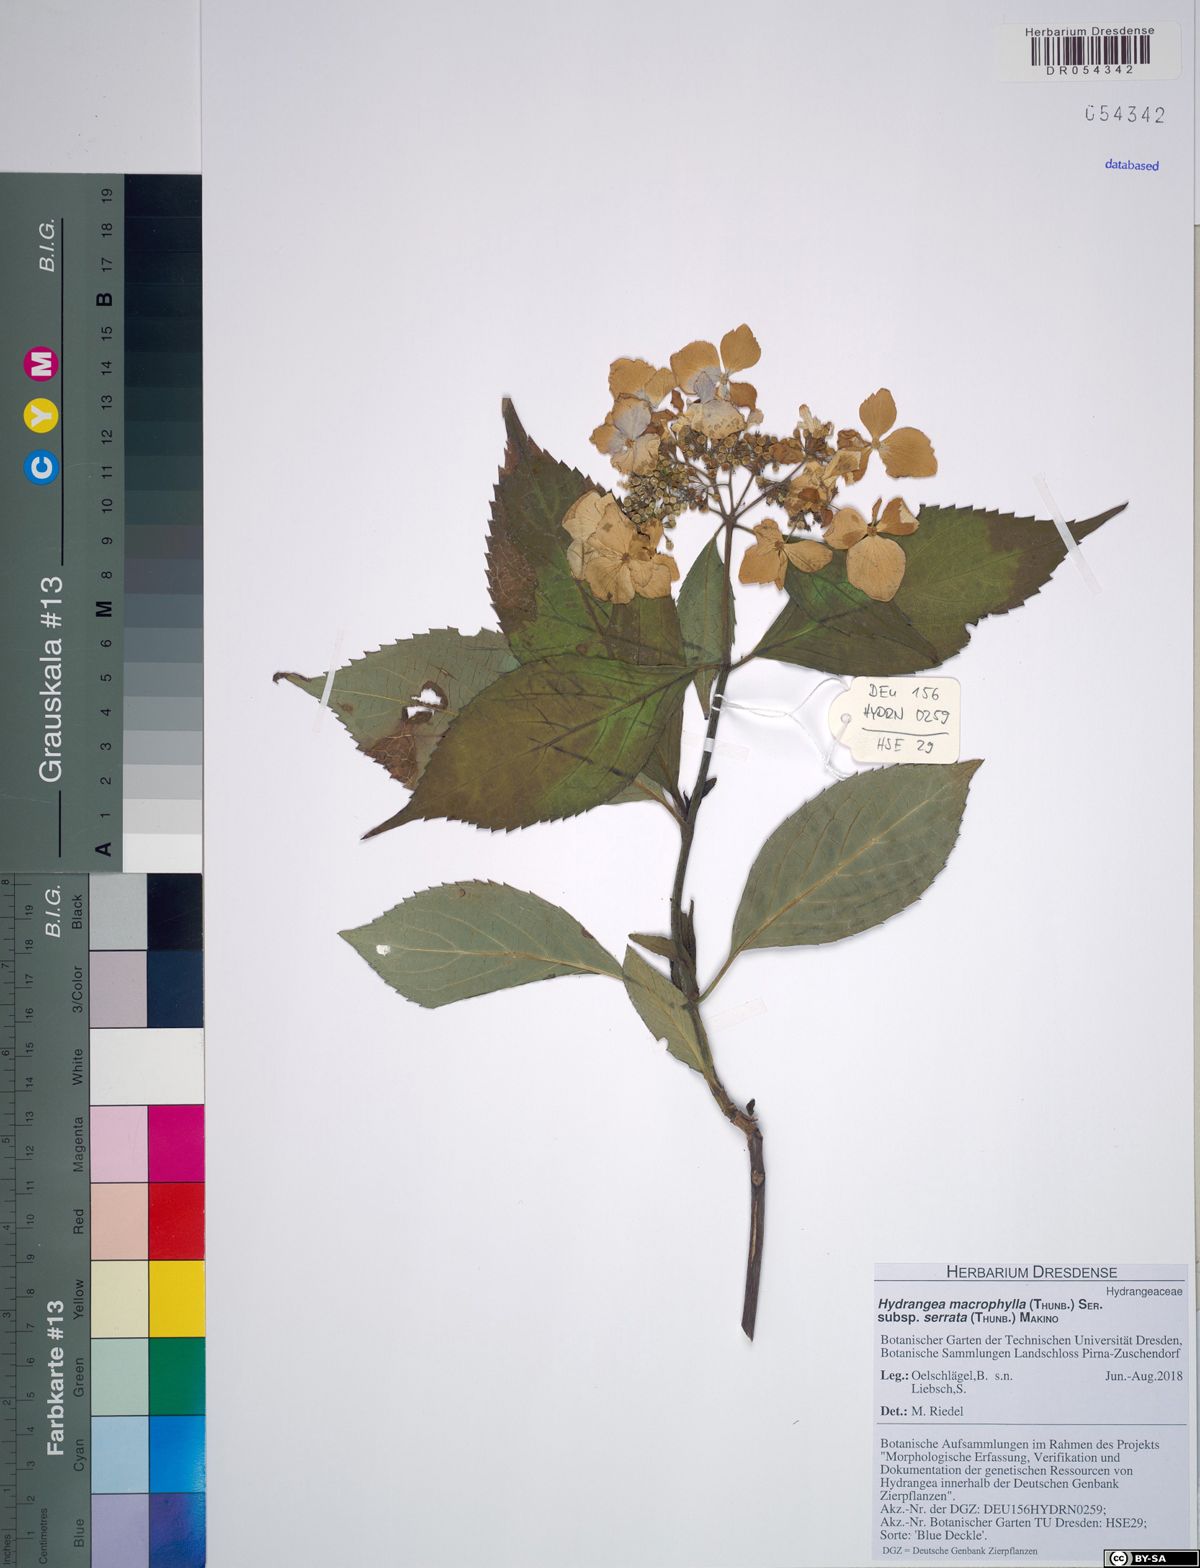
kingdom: Plantae
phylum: Tracheophyta
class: Magnoliopsida
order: Cornales
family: Hydrangeaceae
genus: Hydrangea
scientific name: Hydrangea serrata
